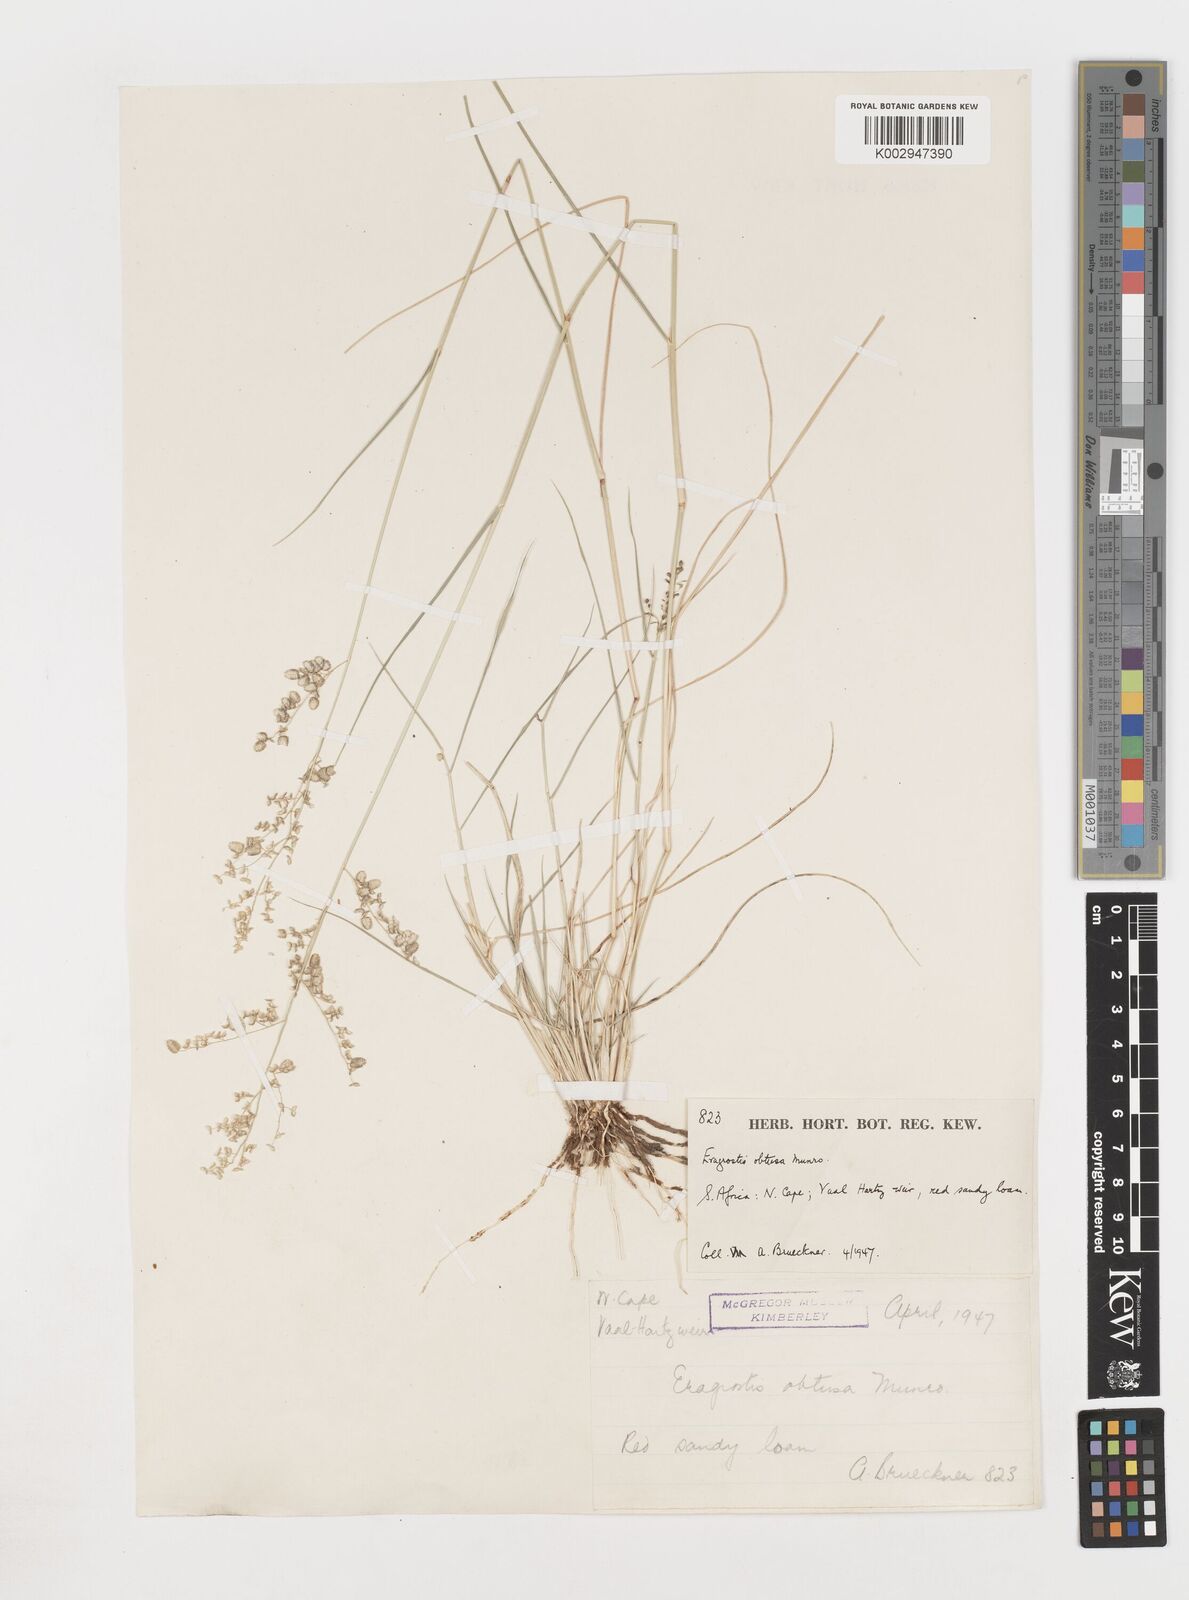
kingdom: Plantae
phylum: Tracheophyta
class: Liliopsida
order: Poales
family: Poaceae
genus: Eragrostis
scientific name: Eragrostis
